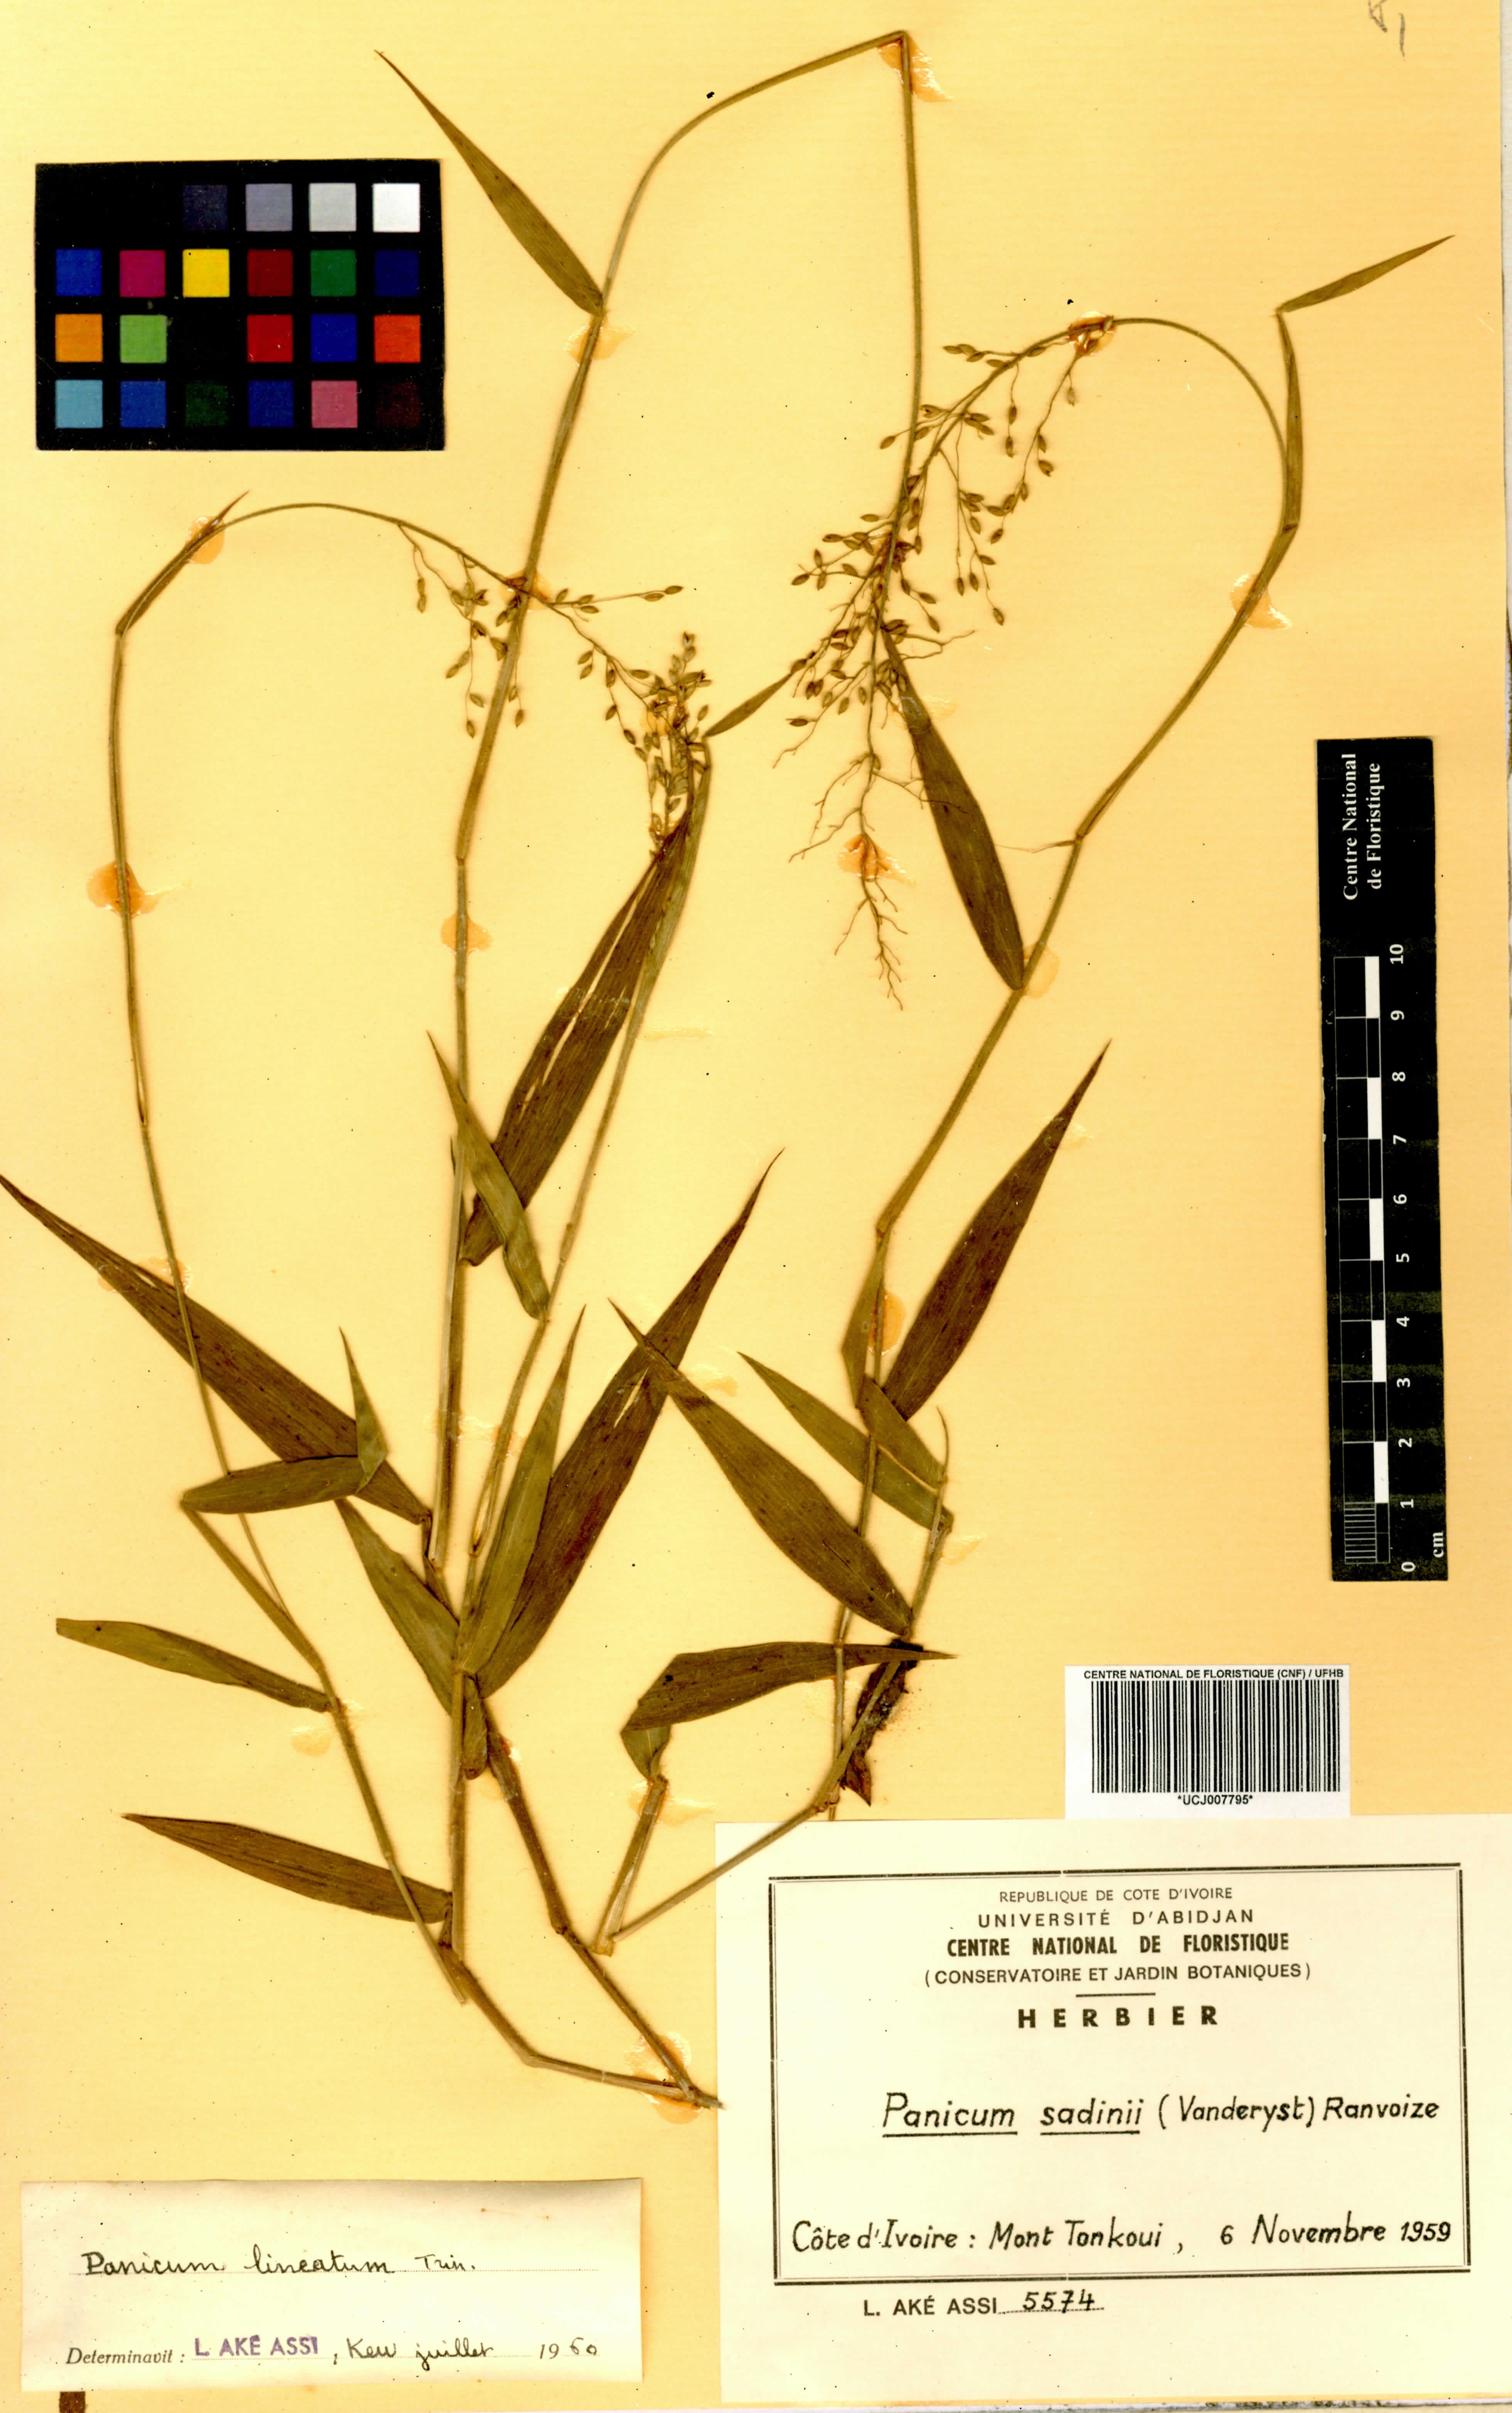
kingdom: Plantae
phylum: Tracheophyta
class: Liliopsida
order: Poales
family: Poaceae
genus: Adenochloa
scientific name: Adenochloa sadinii
